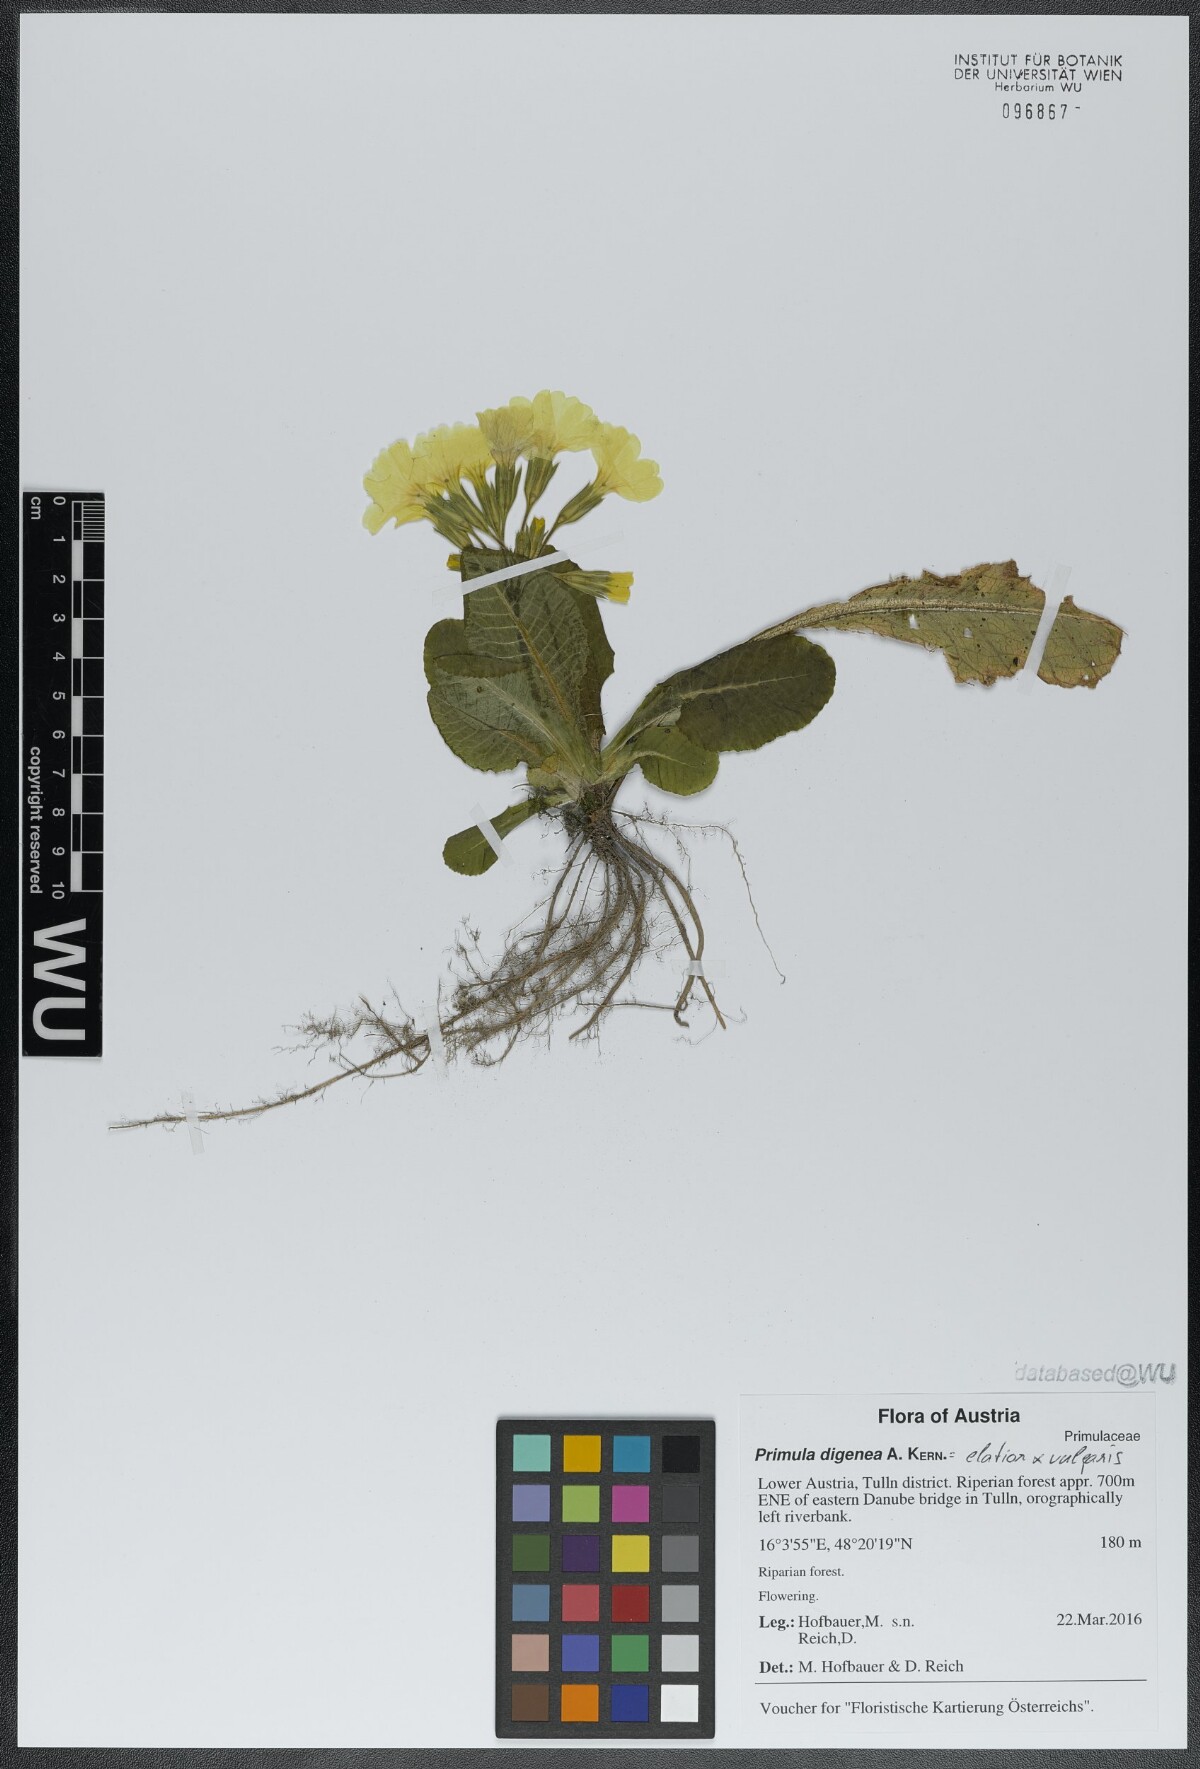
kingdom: Plantae
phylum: Tracheophyta
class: Magnoliopsida
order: Ericales
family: Primulaceae
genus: Primula
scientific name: Primula digenea
